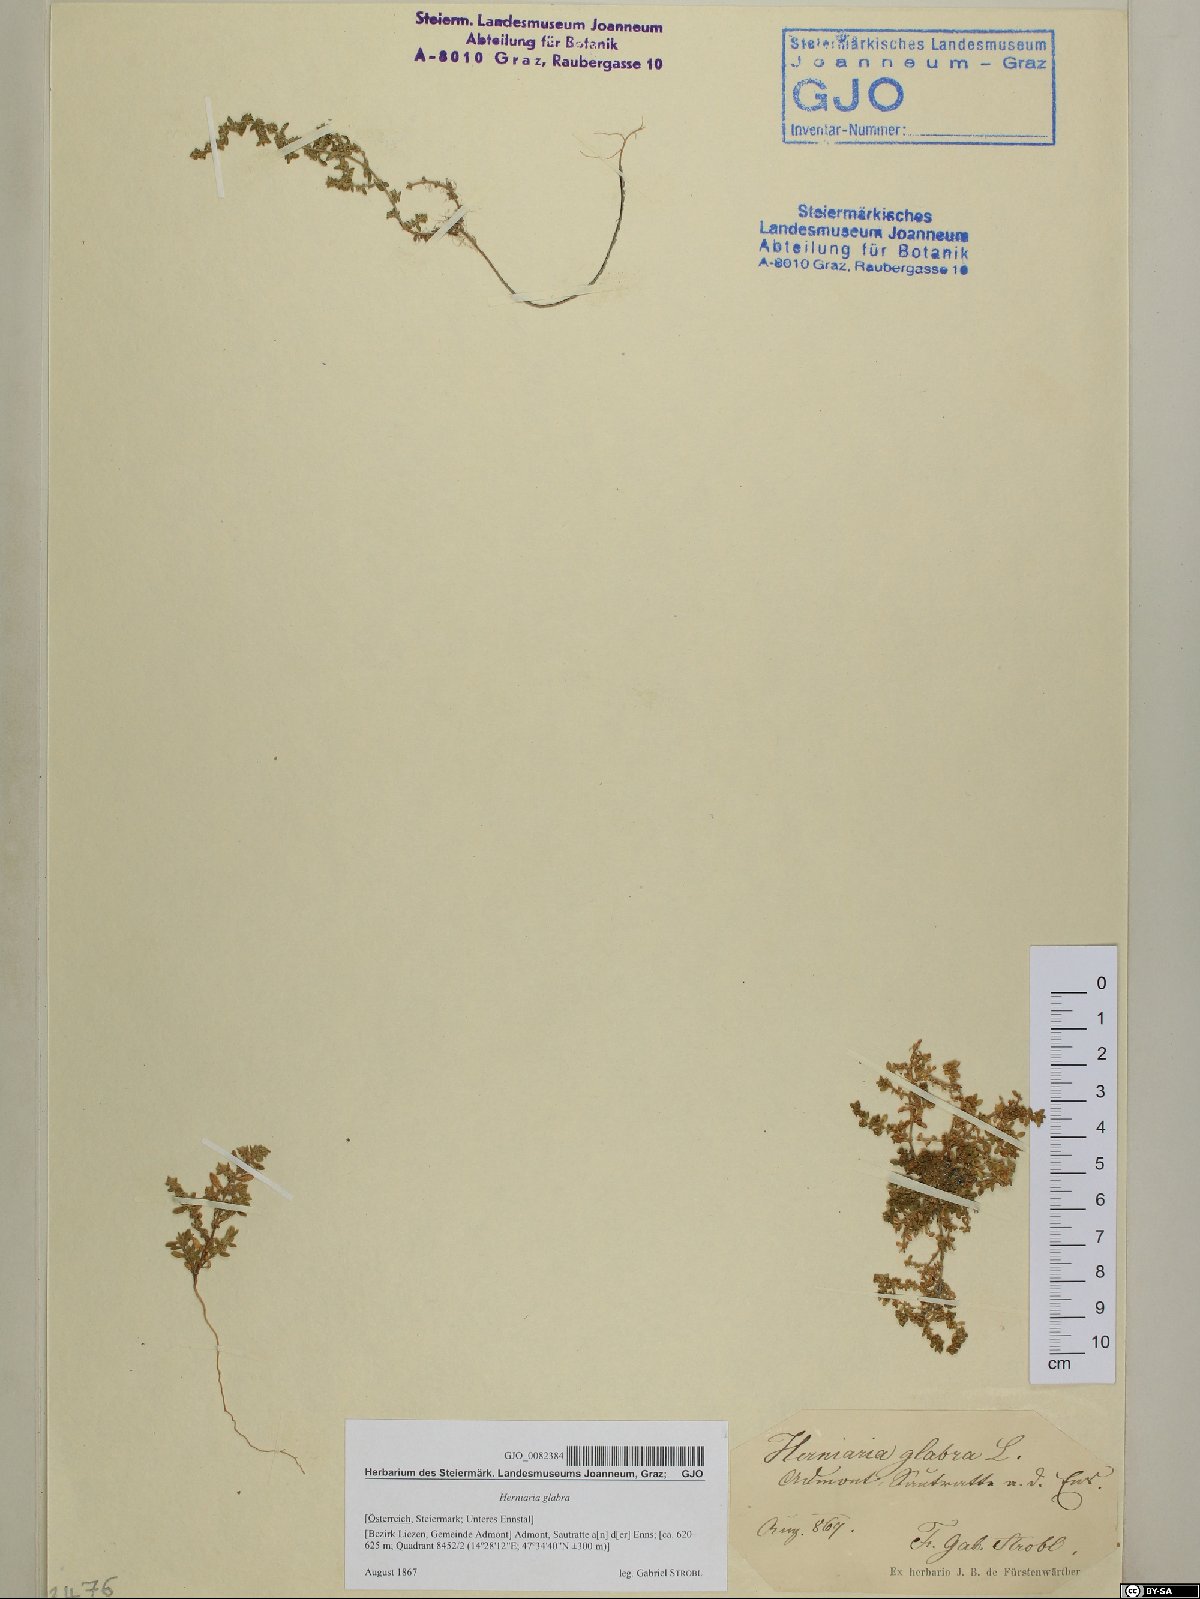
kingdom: Plantae
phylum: Tracheophyta
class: Magnoliopsida
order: Caryophyllales
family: Caryophyllaceae
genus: Herniaria
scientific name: Herniaria glabra
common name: Smooth rupturewort
